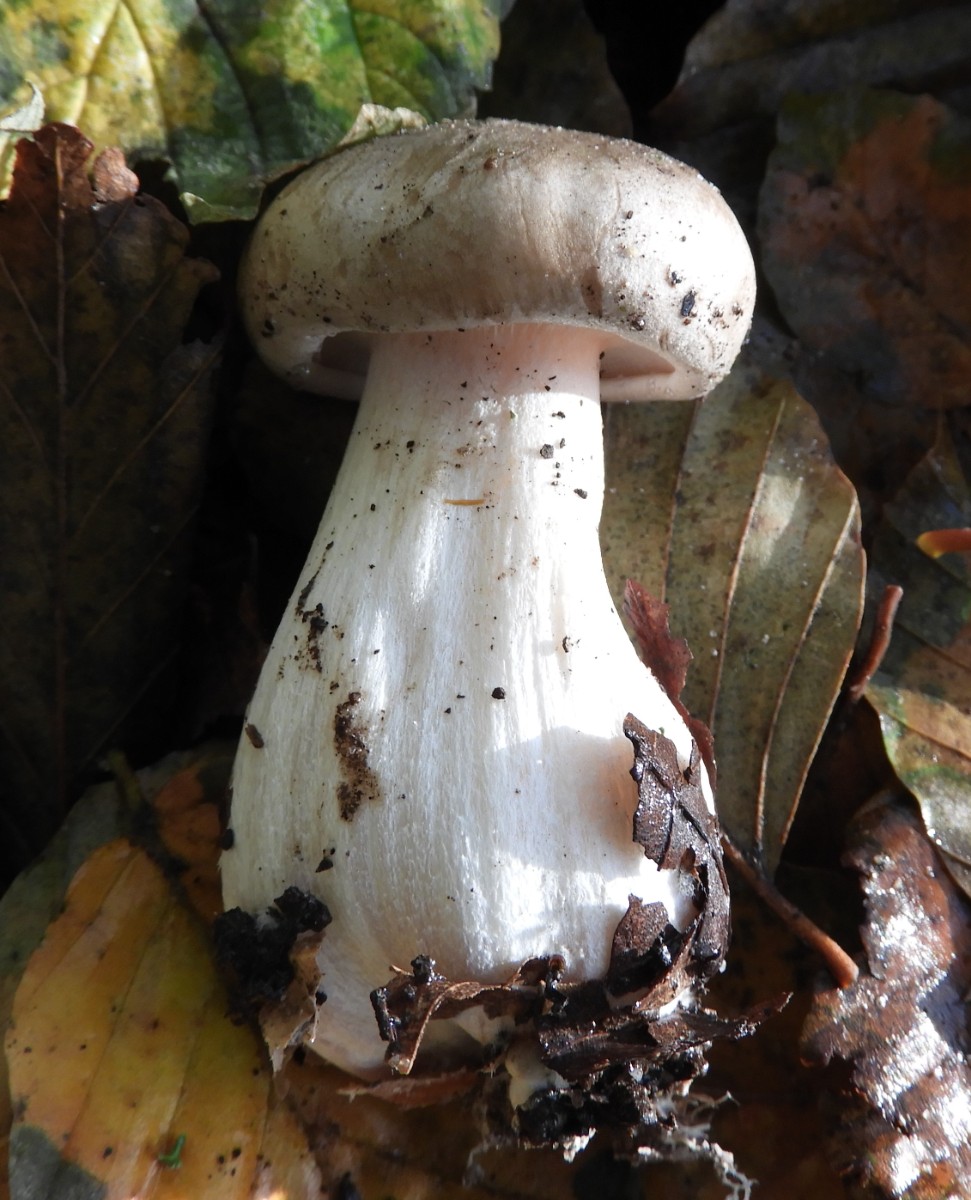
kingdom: Fungi
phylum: Basidiomycota
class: Agaricomycetes
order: Agaricales
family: Tricholomataceae
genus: Clitocybe
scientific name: Clitocybe nebularis
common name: tåge-tragthat
